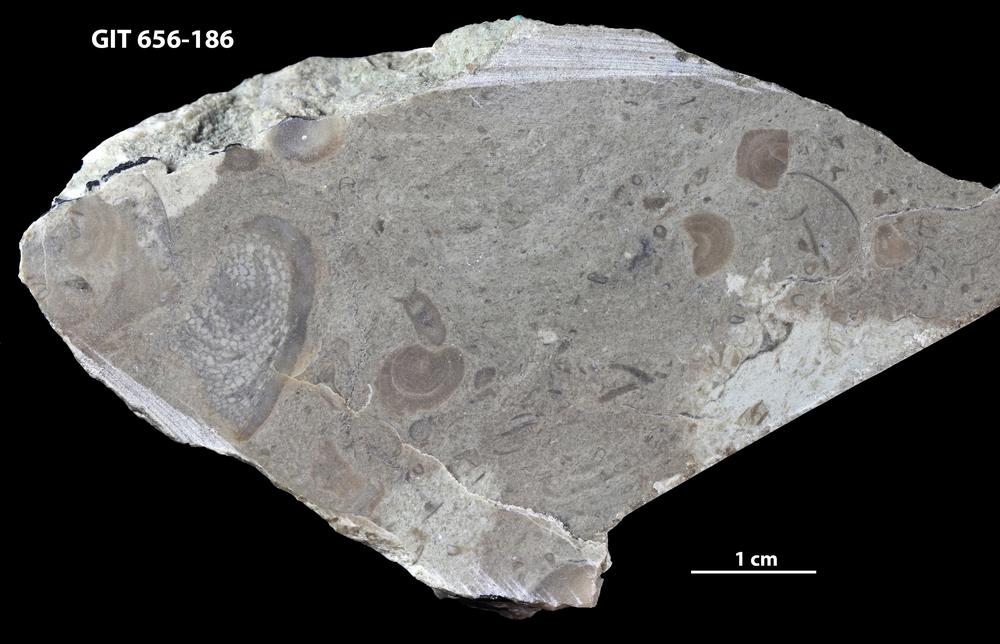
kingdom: Animalia
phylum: Porifera
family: Actinostromatidae
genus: Plectostroma
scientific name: Plectostroma
